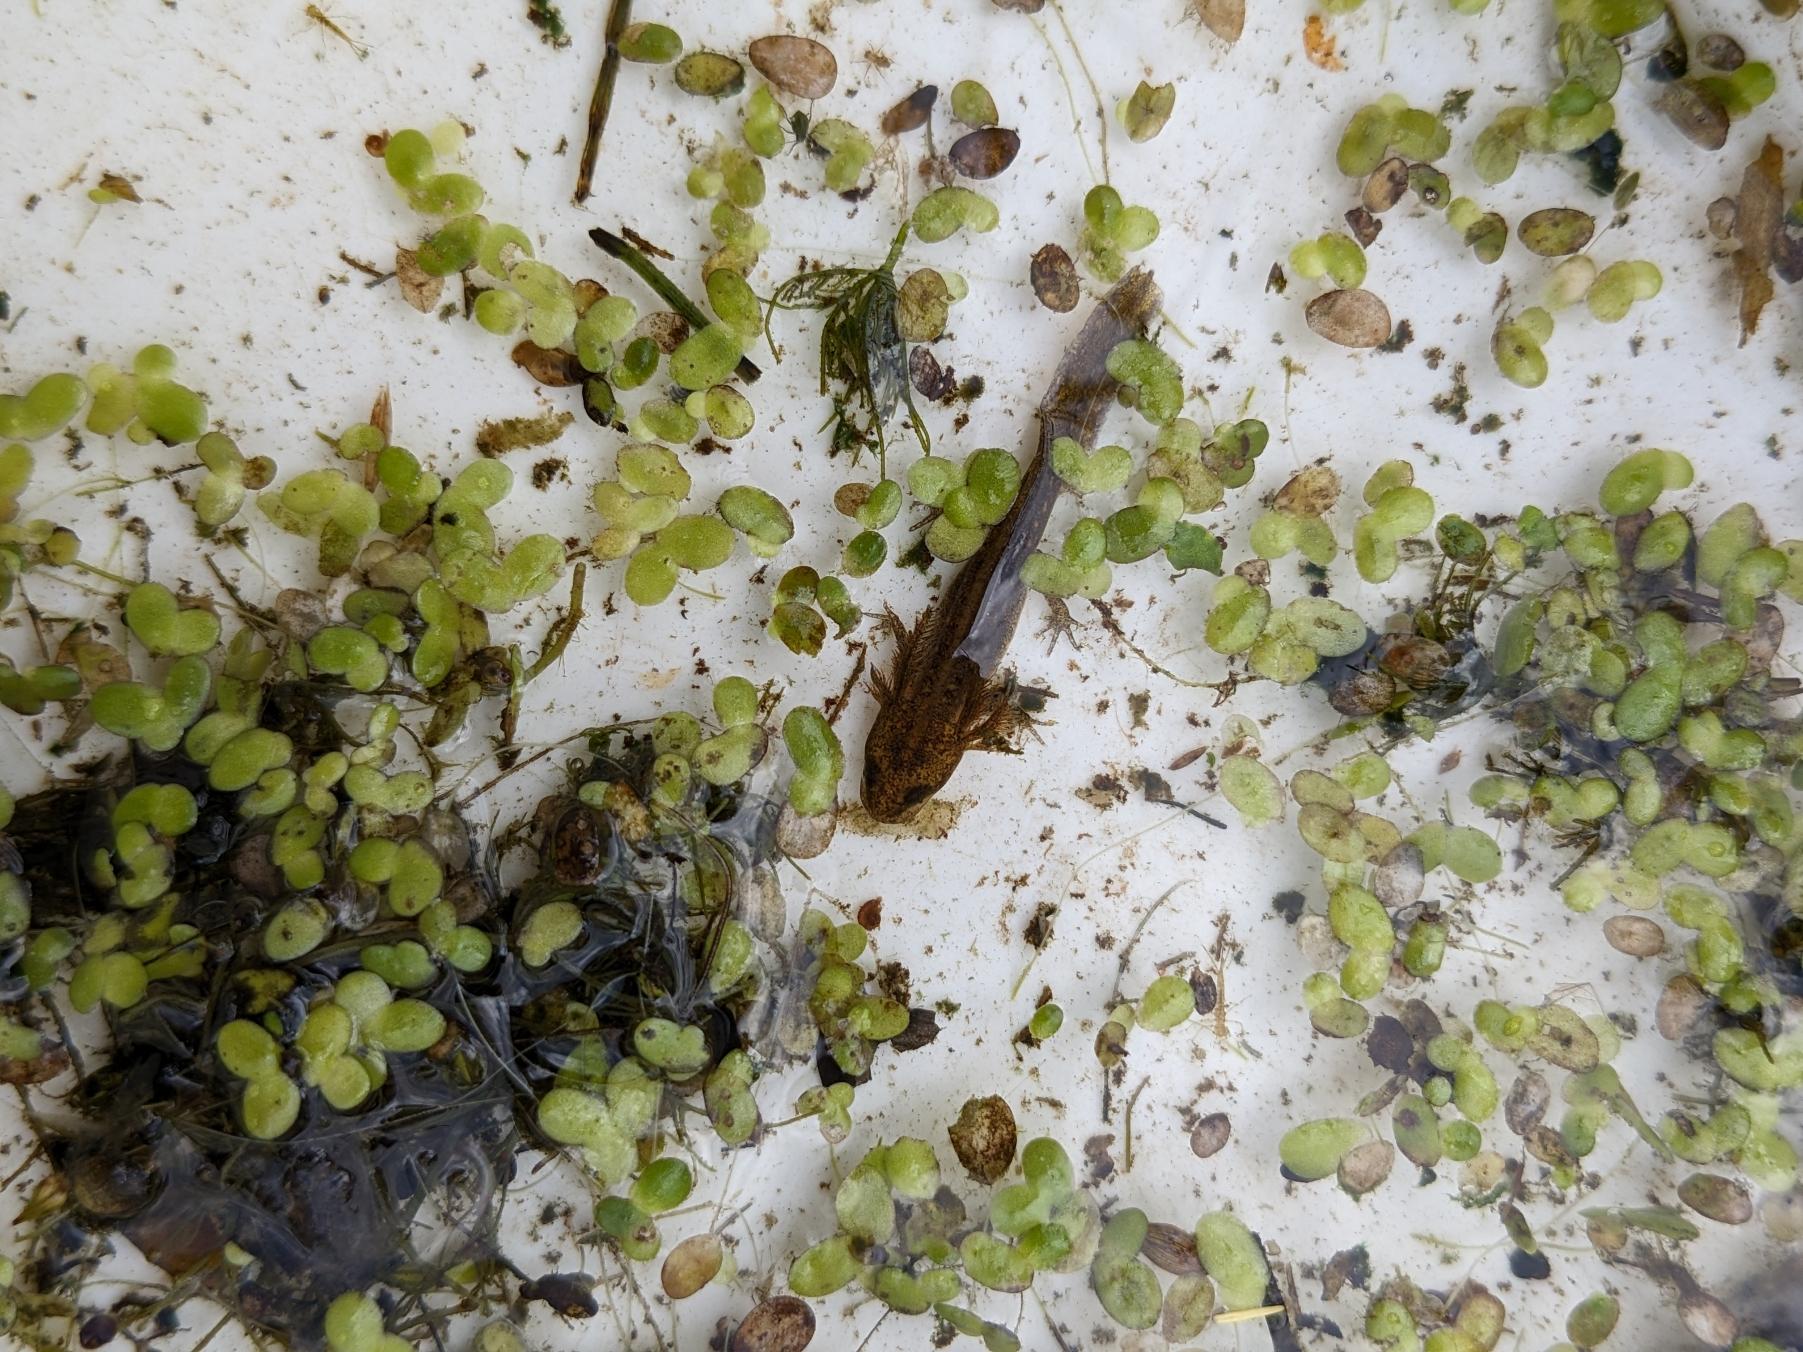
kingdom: Animalia
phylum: Chordata
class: Amphibia
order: Caudata
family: Salamandridae
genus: Lissotriton
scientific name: Lissotriton vulgaris
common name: Lille vandsalamander
